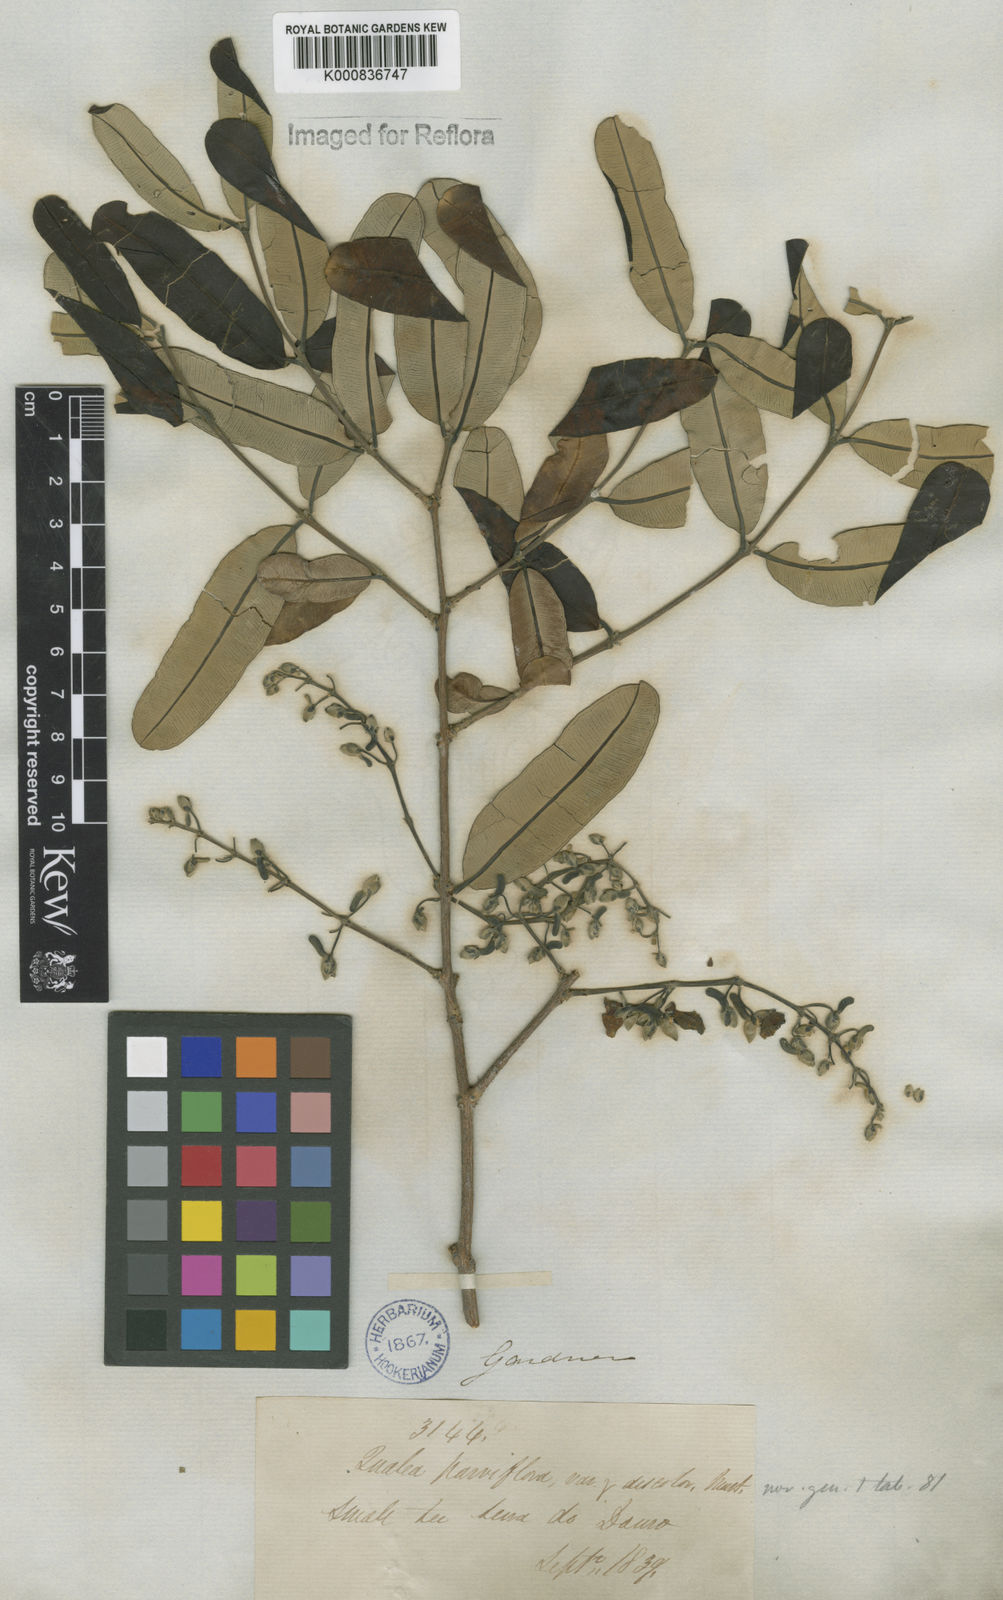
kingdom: Plantae
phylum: Tracheophyta
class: Magnoliopsida
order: Myrtales
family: Vochysiaceae
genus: Qualea
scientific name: Qualea parviflora
